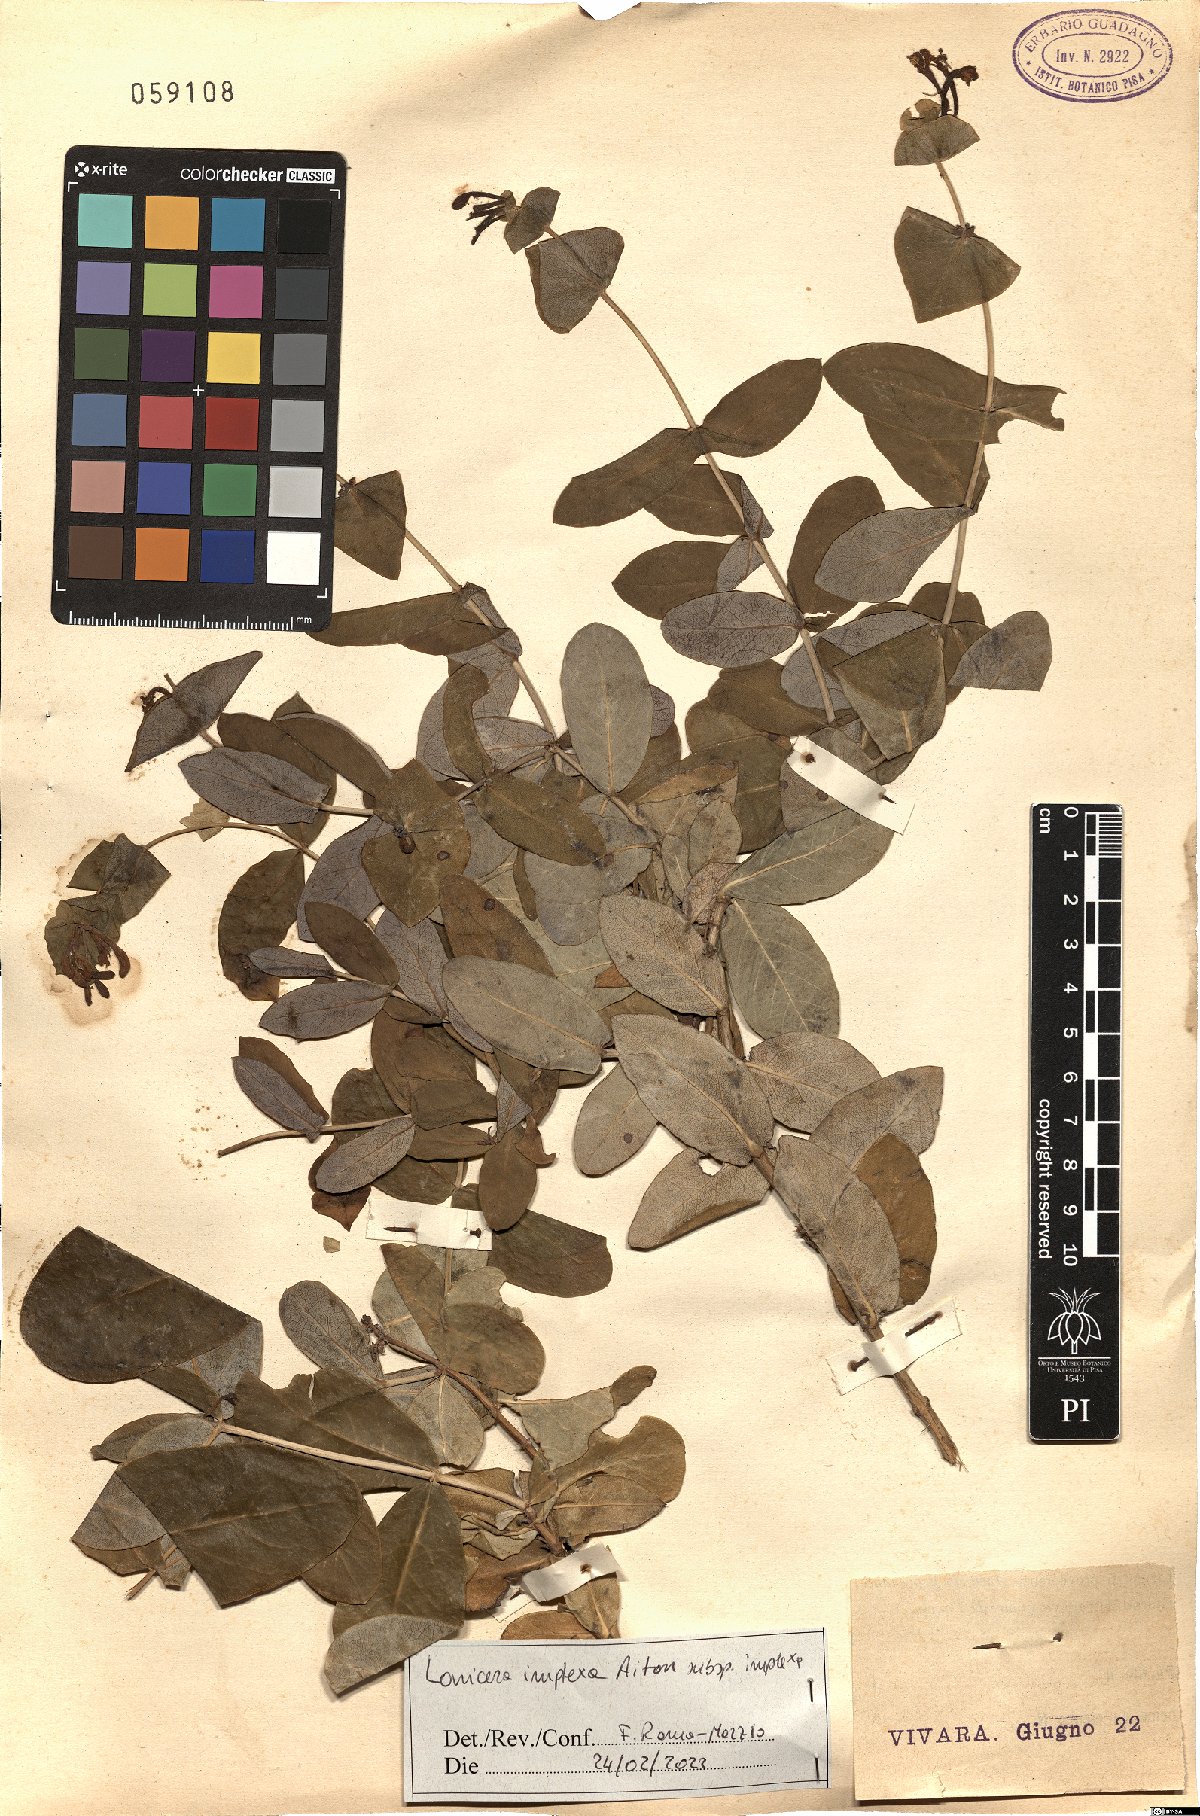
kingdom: Plantae
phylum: Tracheophyta
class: Magnoliopsida
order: Dipsacales
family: Caprifoliaceae
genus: Lonicera
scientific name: Lonicera implexa
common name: Minorca honeysuckle
